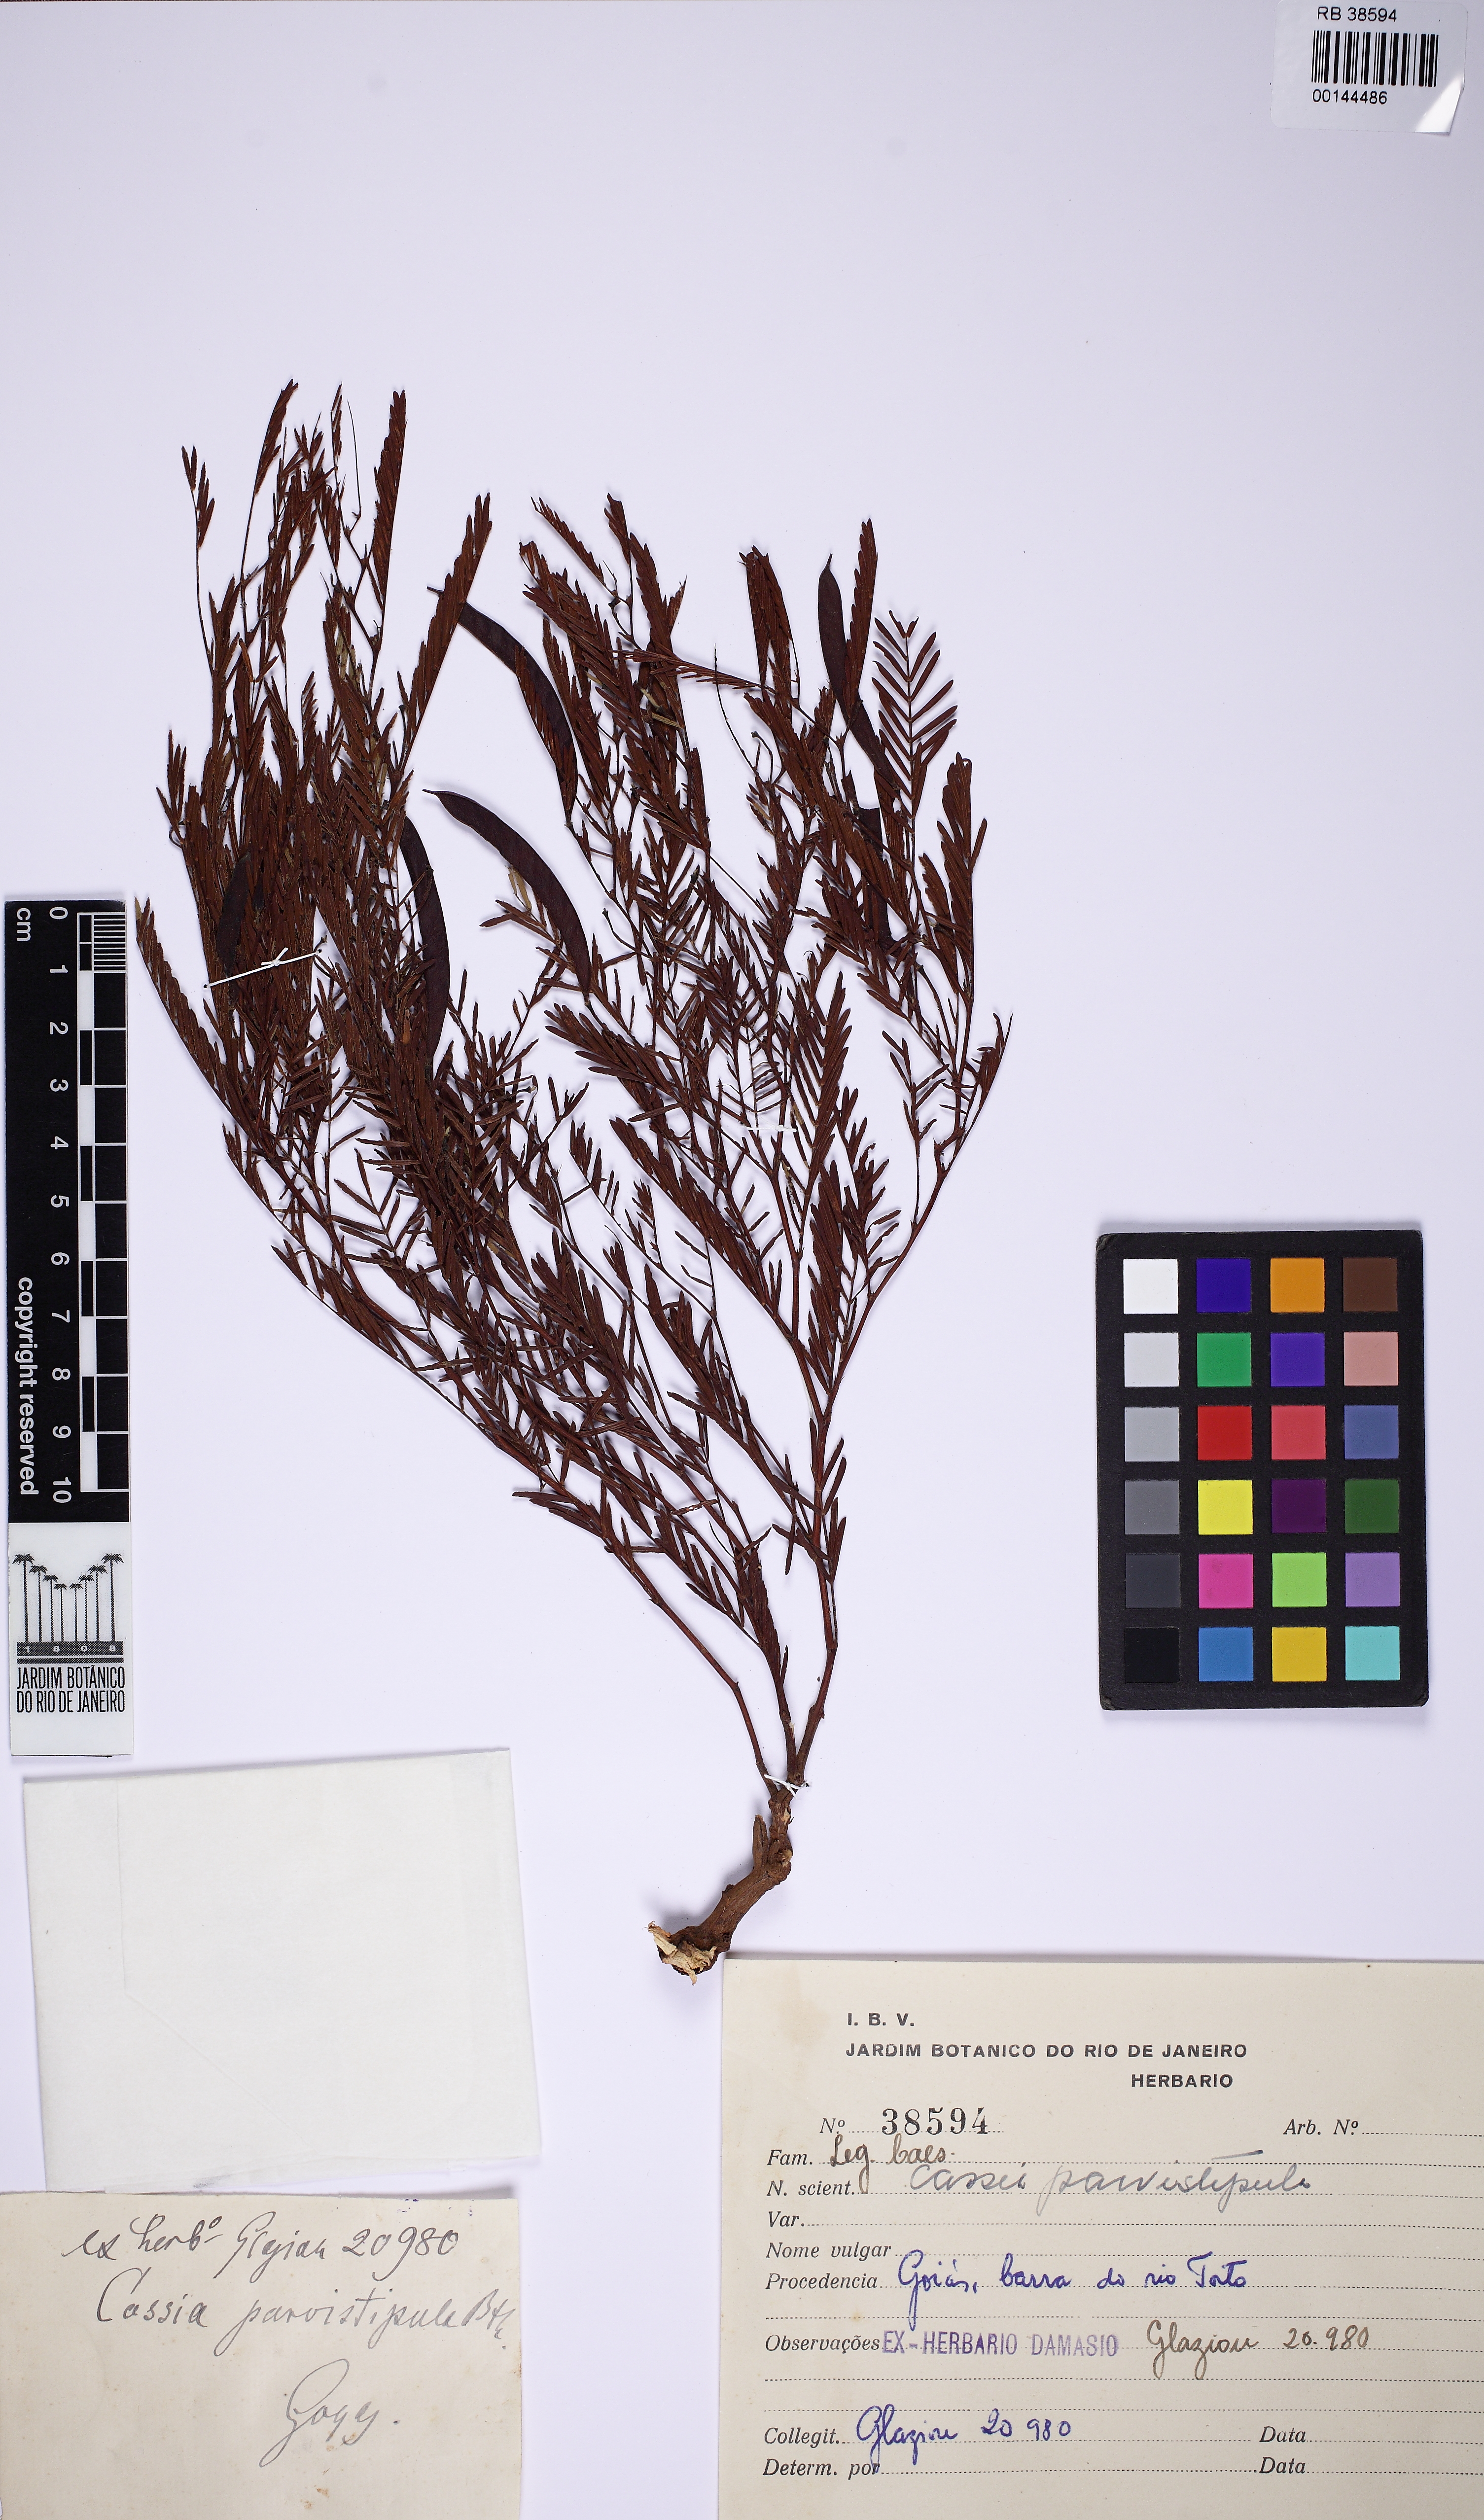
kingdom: Plantae
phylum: Tracheophyta
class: Magnoliopsida
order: Fabales
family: Fabaceae
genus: Chamaecrista
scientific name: Chamaecrista parvistipula
